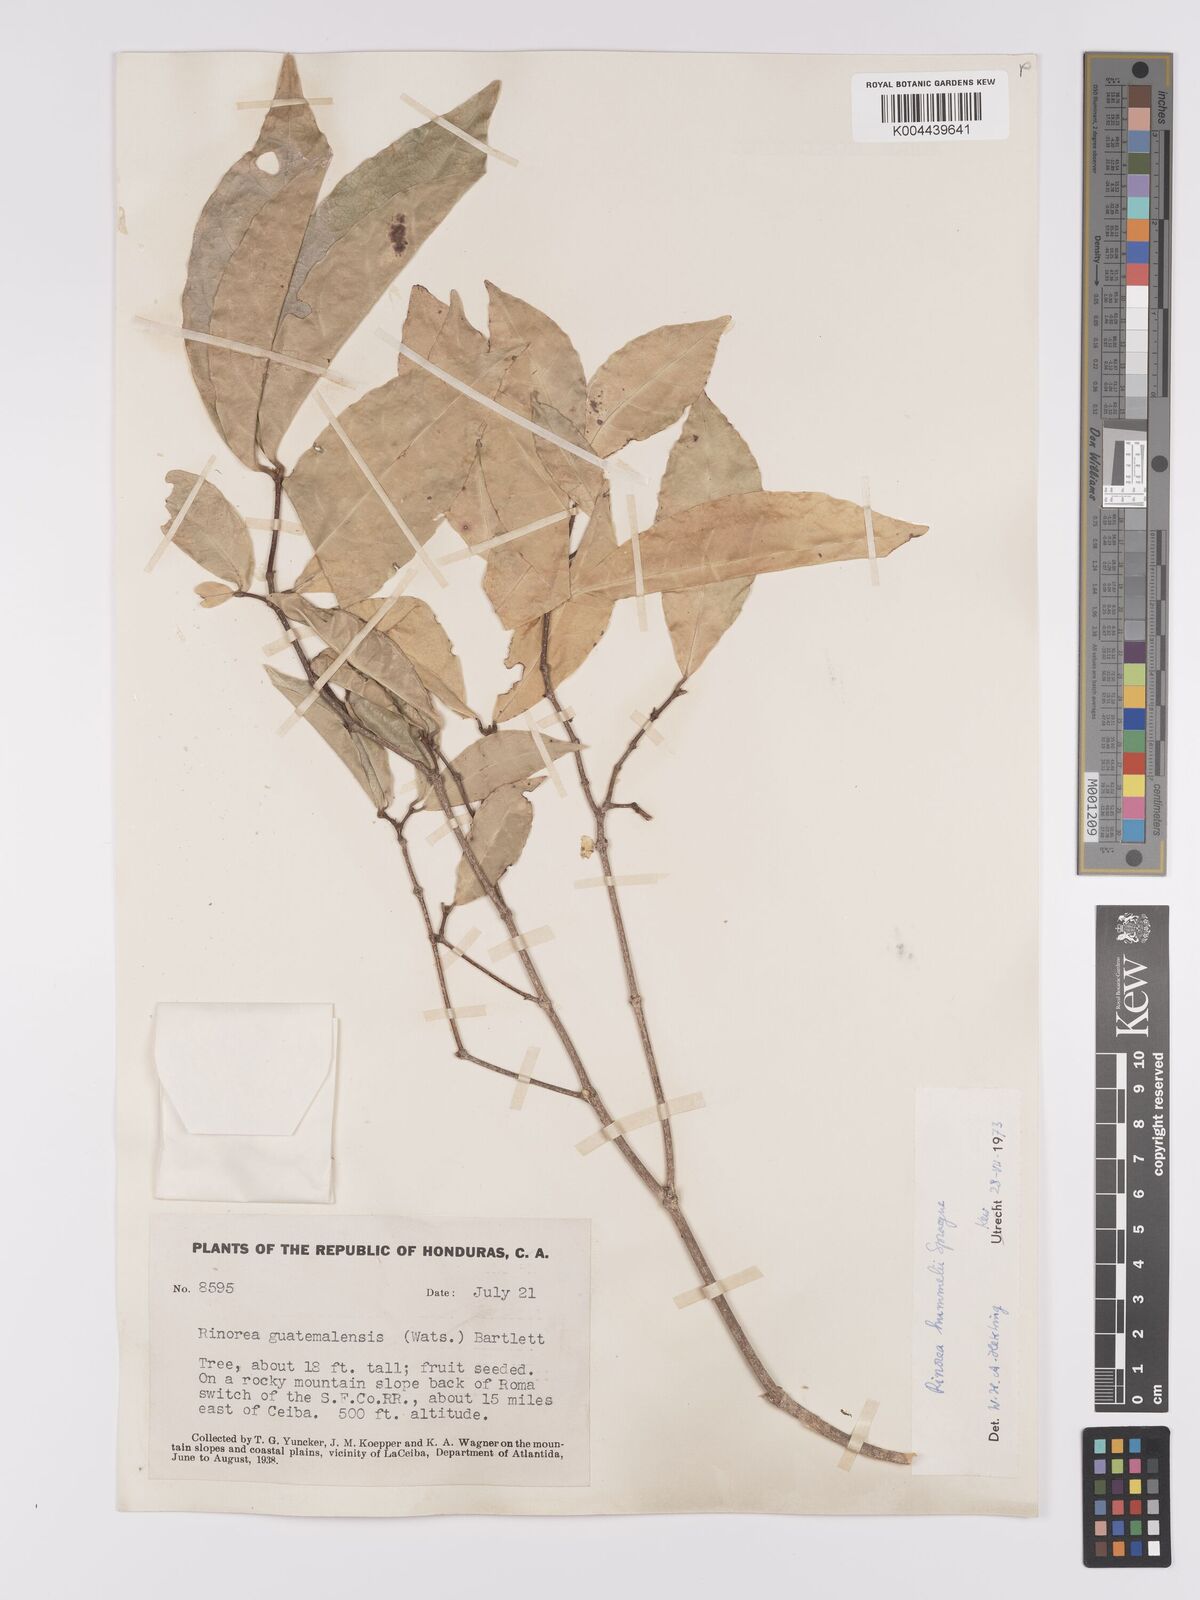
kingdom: Plantae
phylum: Tracheophyta
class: Magnoliopsida
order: Malpighiales
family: Violaceae
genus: Rinorea
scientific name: Rinorea hummelii
